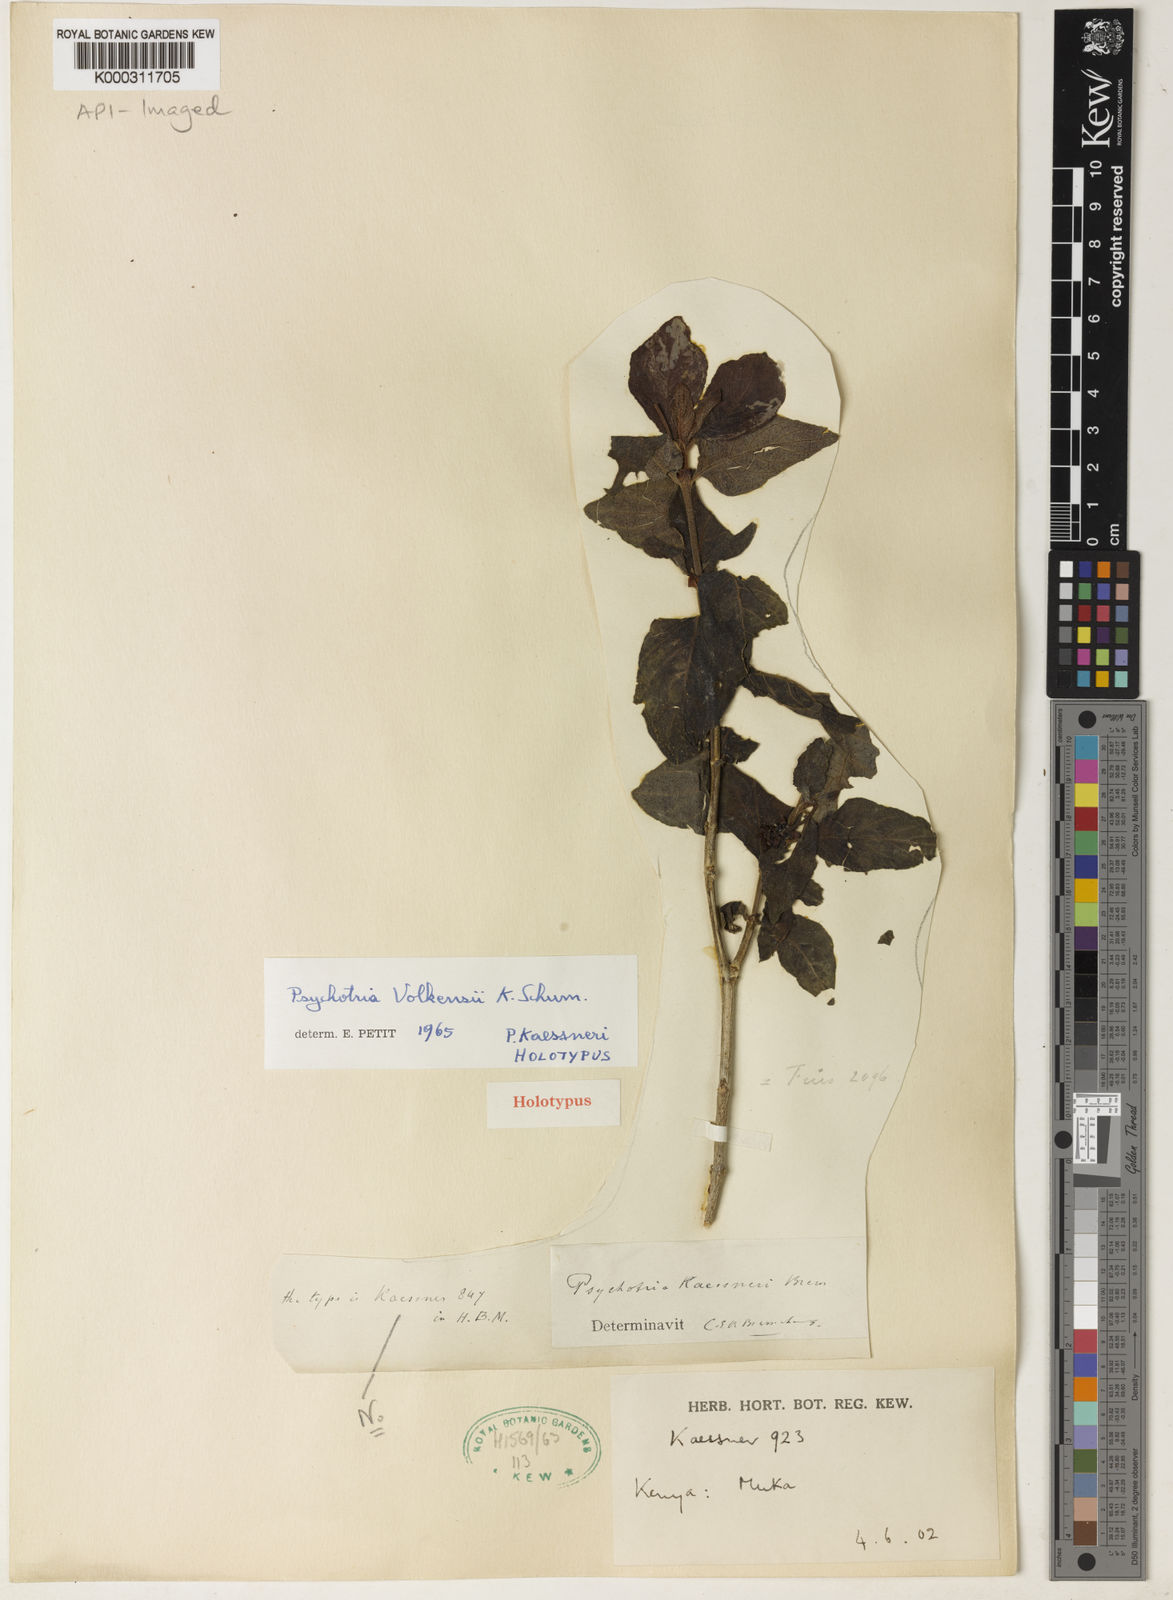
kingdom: Plantae
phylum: Tracheophyta
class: Magnoliopsida
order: Gentianales
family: Rubiaceae
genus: Psychotria
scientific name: Psychotria punctata
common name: Dotted wild coffee
